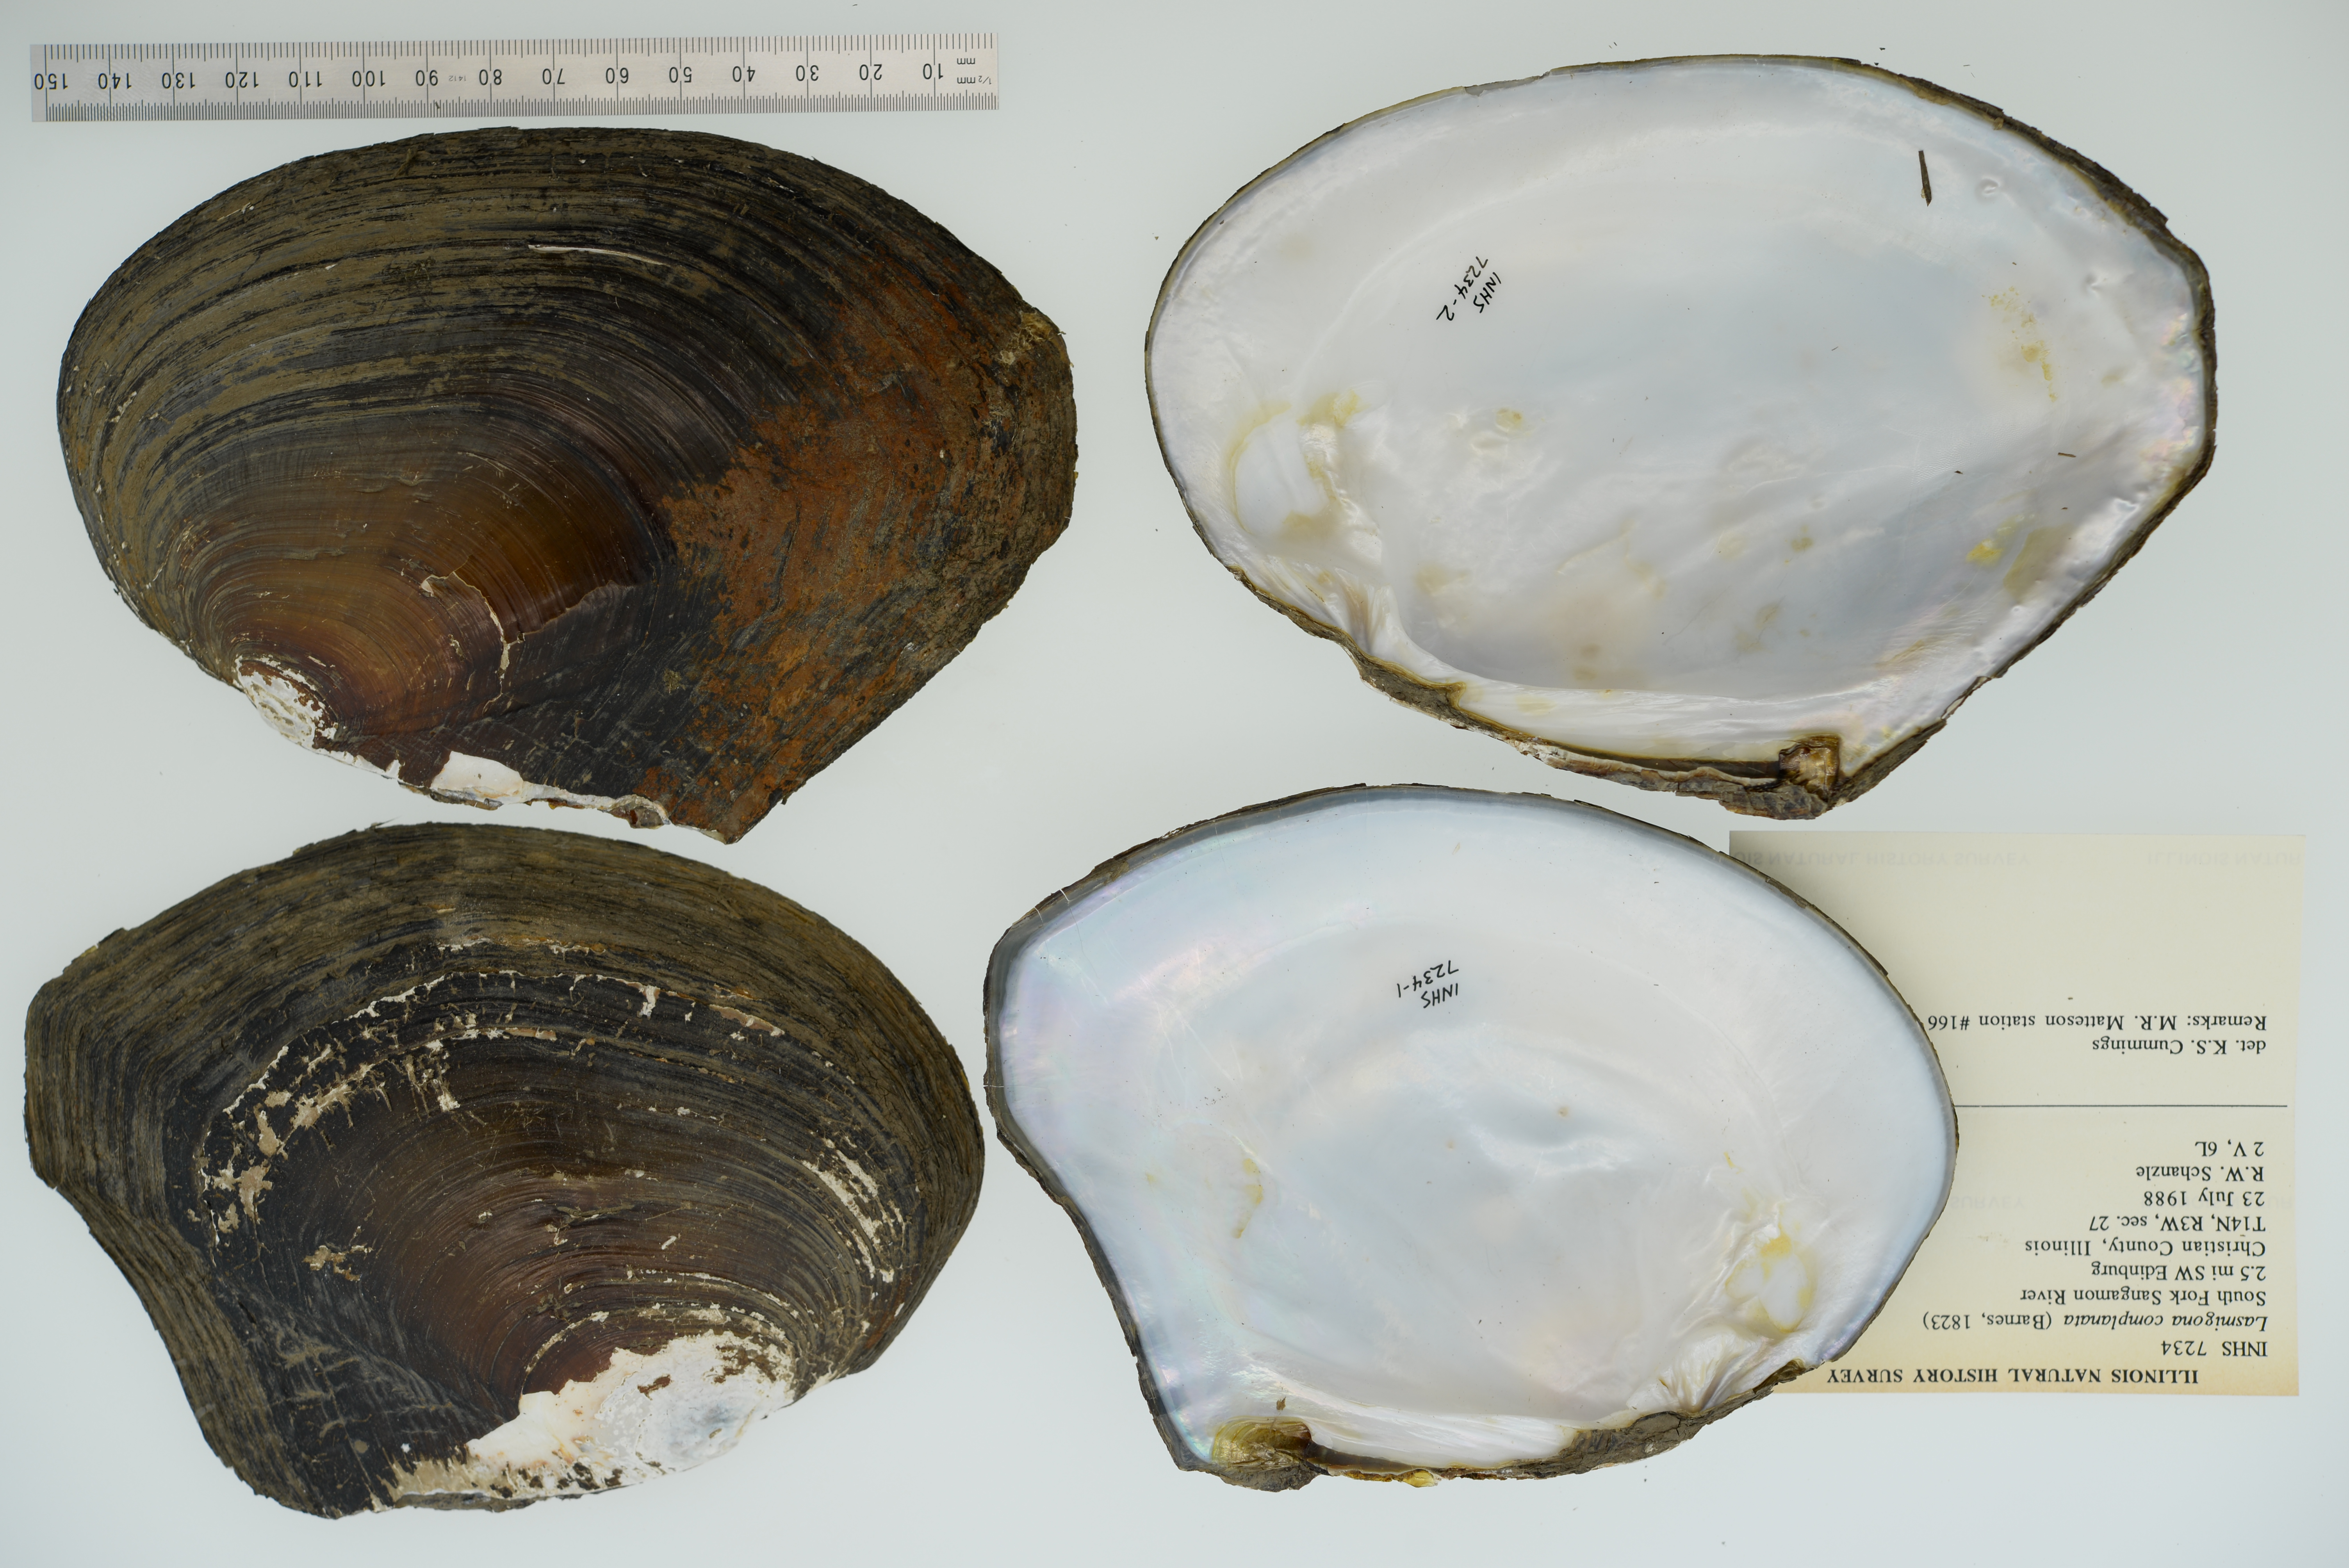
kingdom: Animalia
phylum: Mollusca
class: Bivalvia
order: Unionida
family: Unionidae
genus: Lasmigona
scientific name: Lasmigona complanata
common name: White heelsplitter
